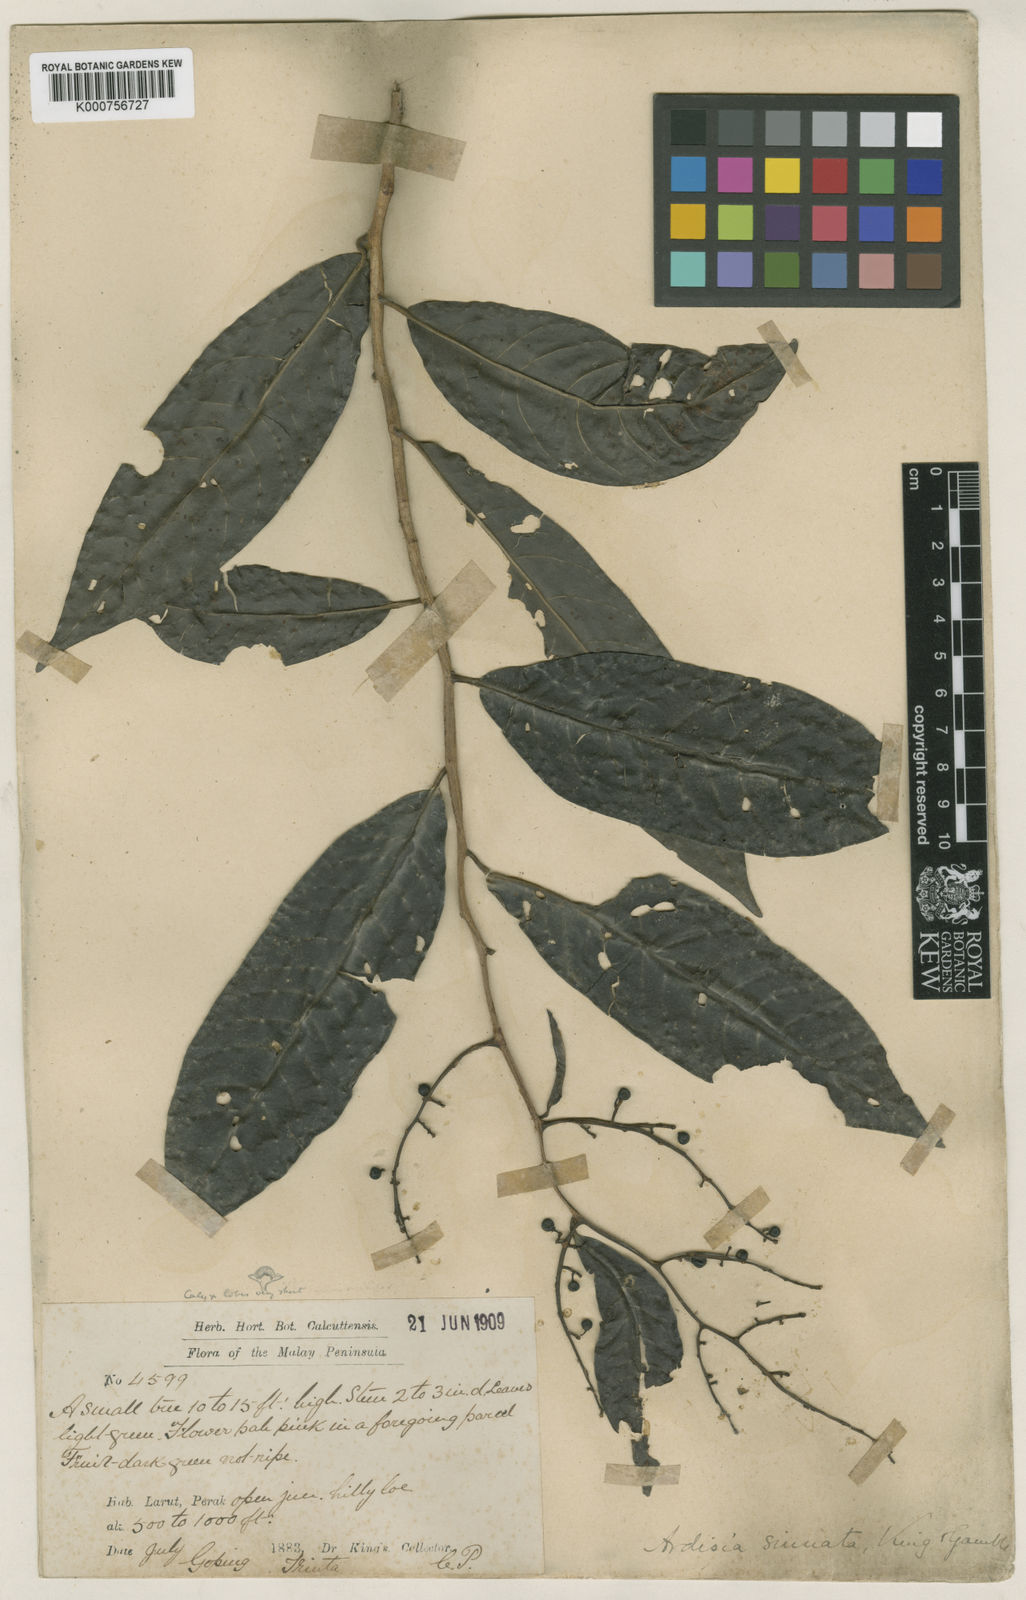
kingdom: Plantae
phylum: Tracheophyta
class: Magnoliopsida
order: Ericales
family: Primulaceae
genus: Ardisia
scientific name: Ardisia sinuata
